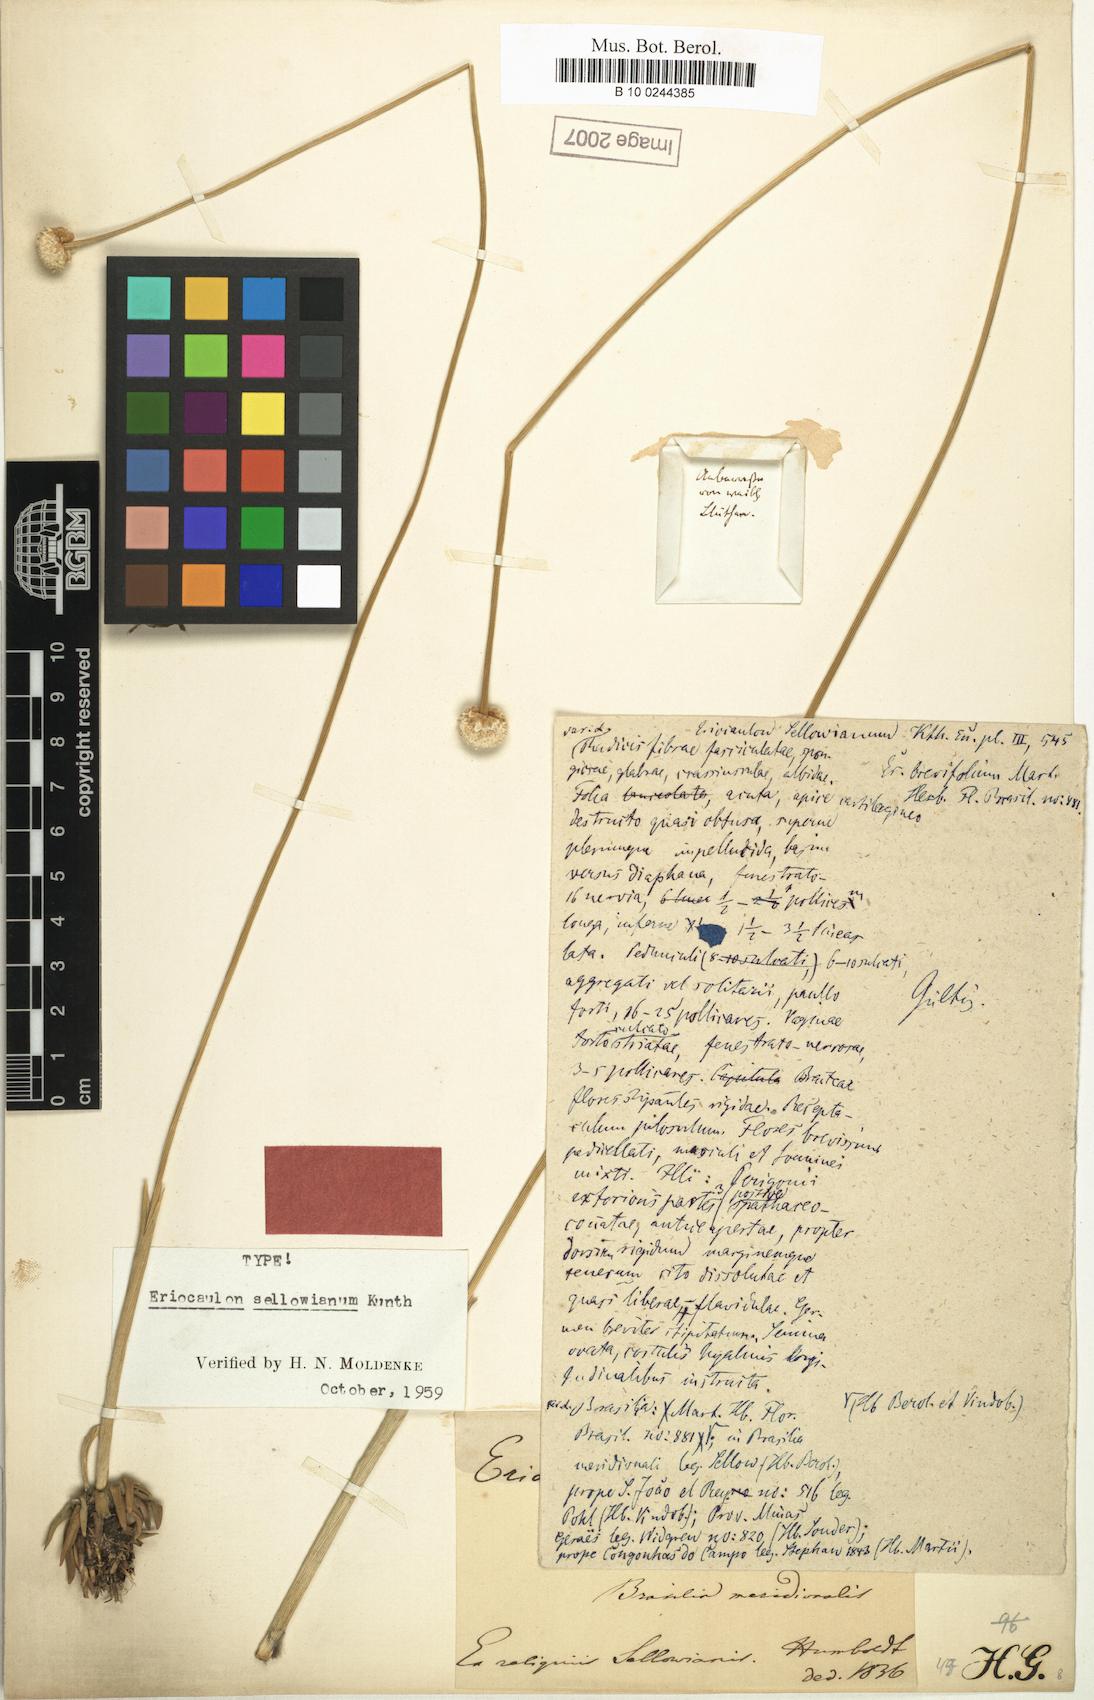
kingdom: Plantae
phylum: Tracheophyta
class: Liliopsida
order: Poales
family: Eriocaulaceae
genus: Eriocaulon
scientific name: Eriocaulon sellowianum
